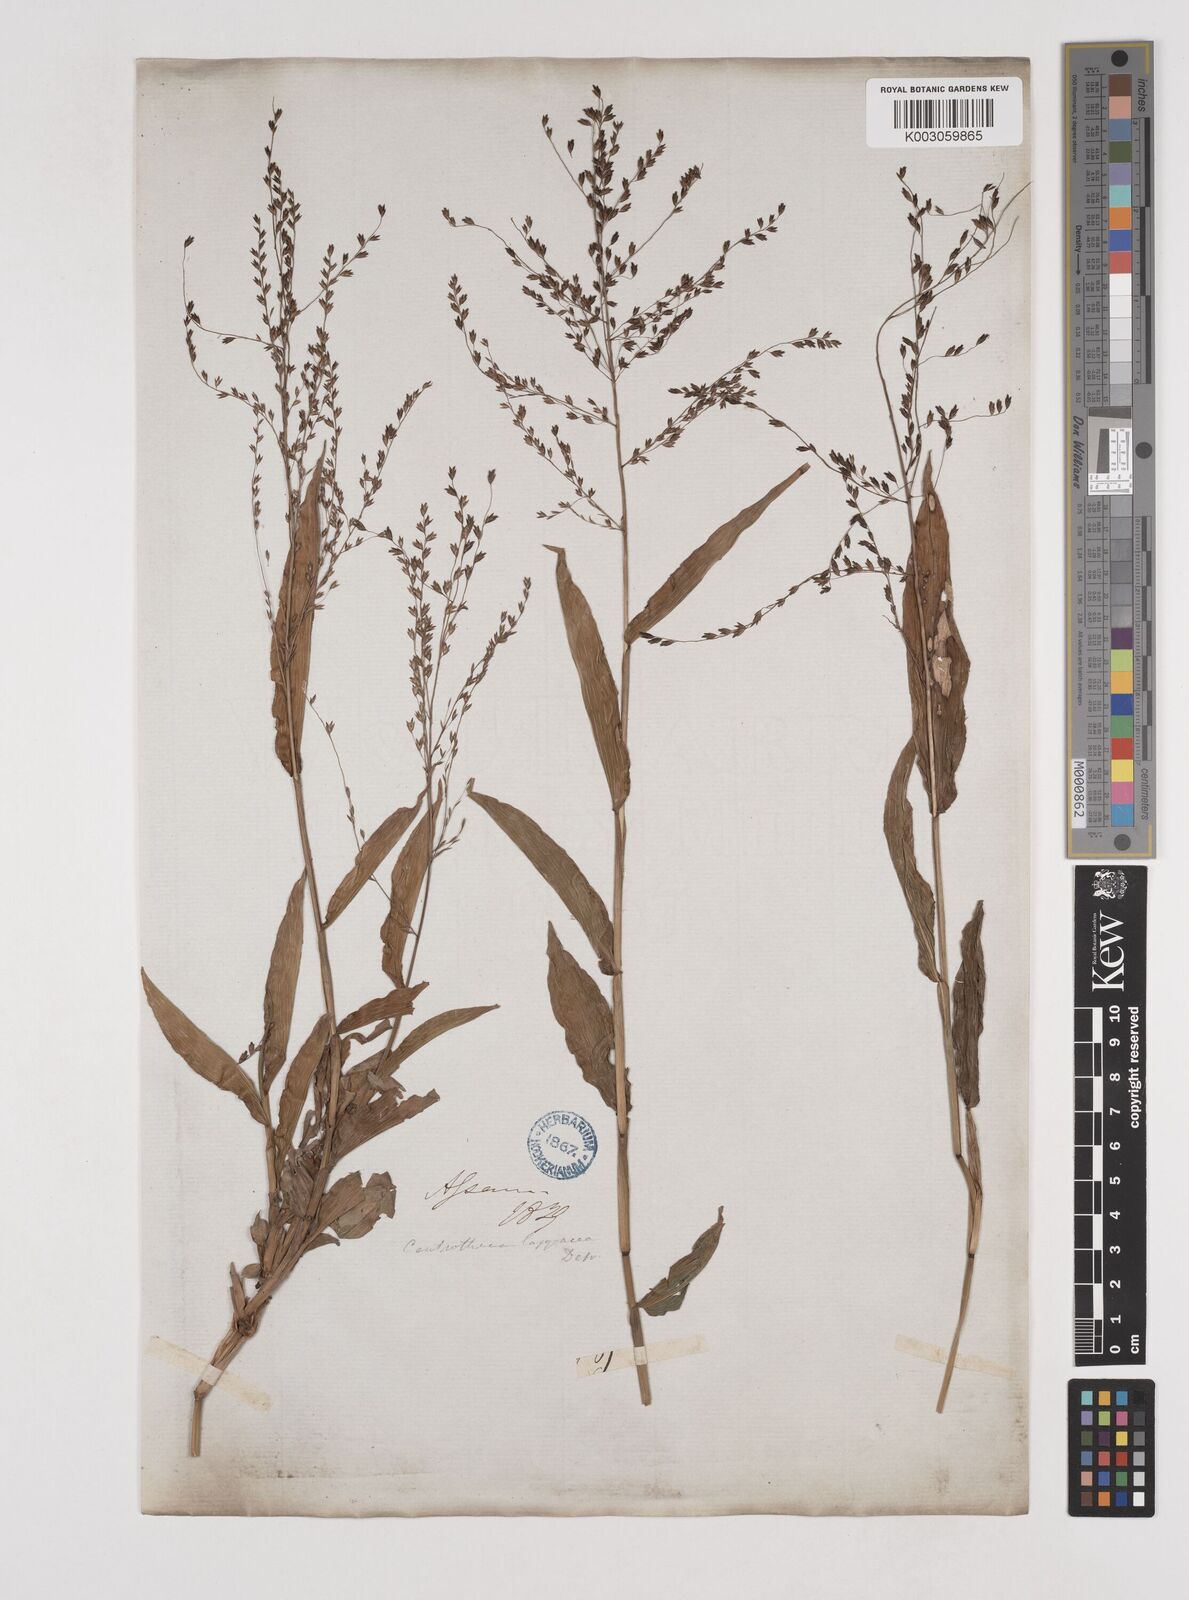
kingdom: Plantae
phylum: Tracheophyta
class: Liliopsida
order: Poales
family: Poaceae
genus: Centotheca
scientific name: Centotheca lappacea
